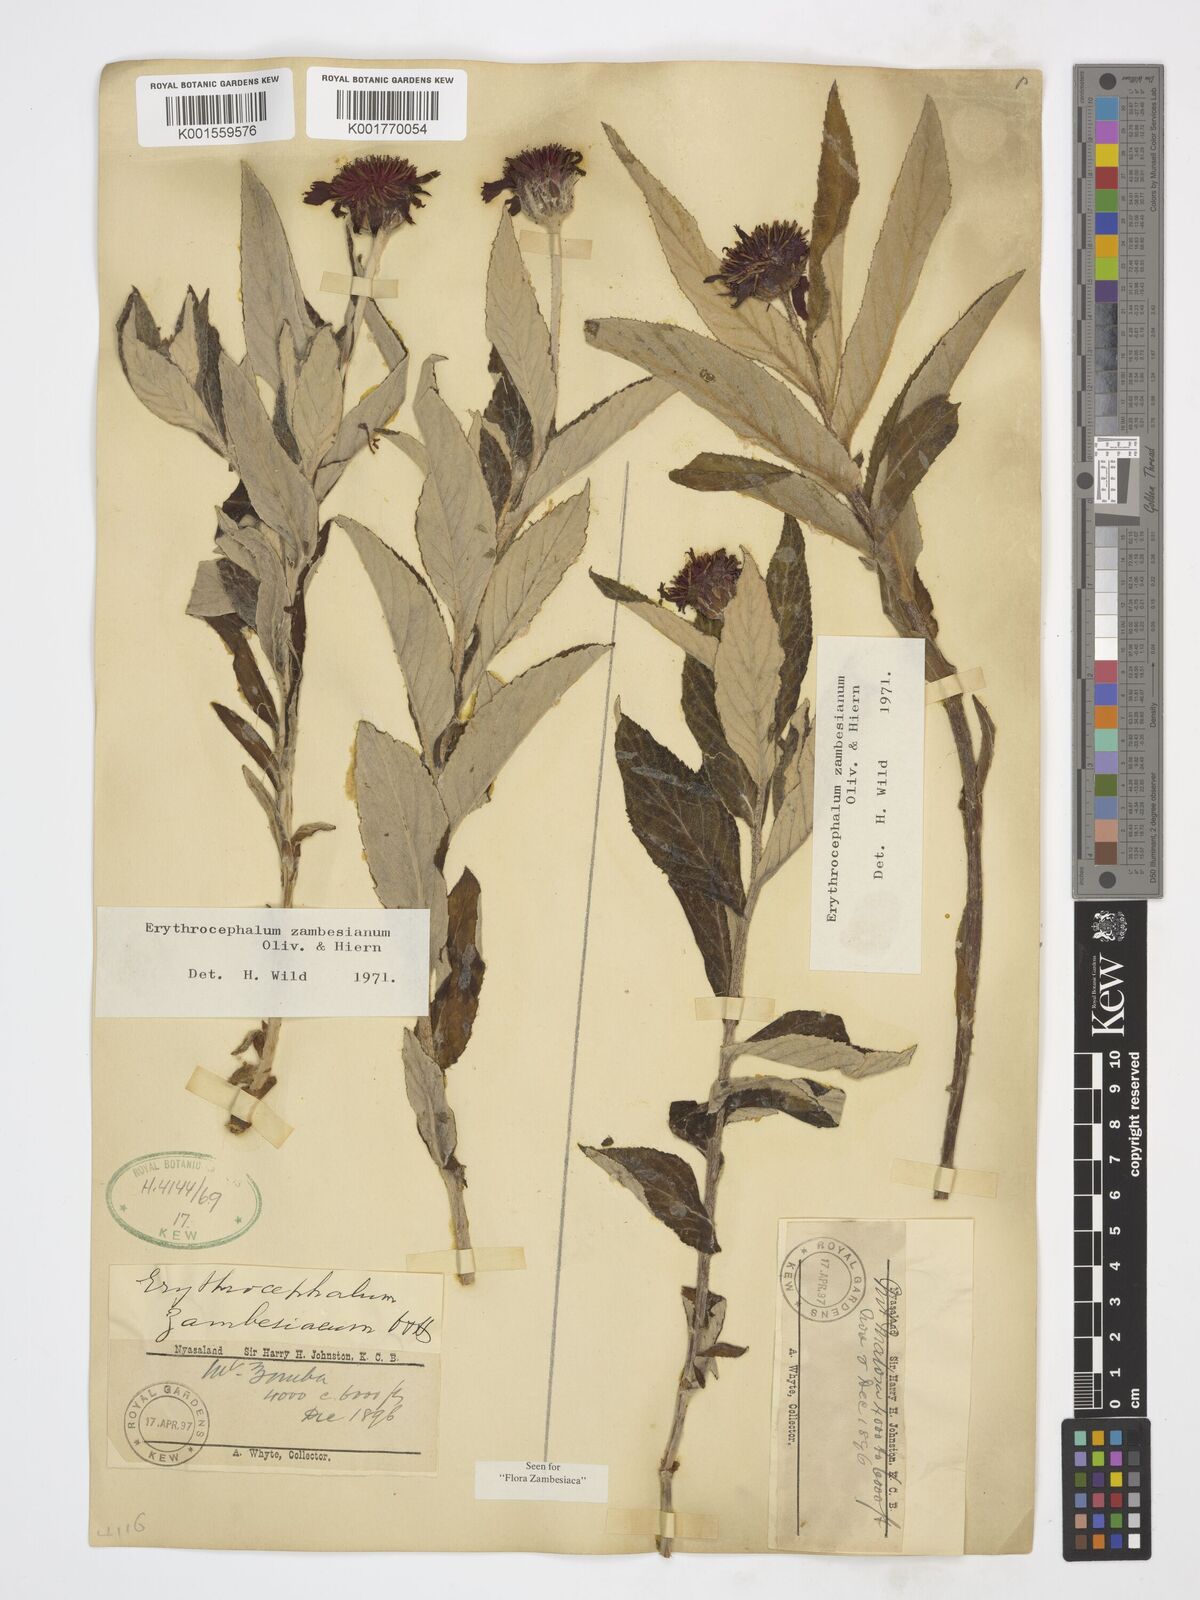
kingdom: Plantae
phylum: Tracheophyta
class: Magnoliopsida
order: Asterales
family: Asteraceae
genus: Erythrocephalum
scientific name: Erythrocephalum longifolium
